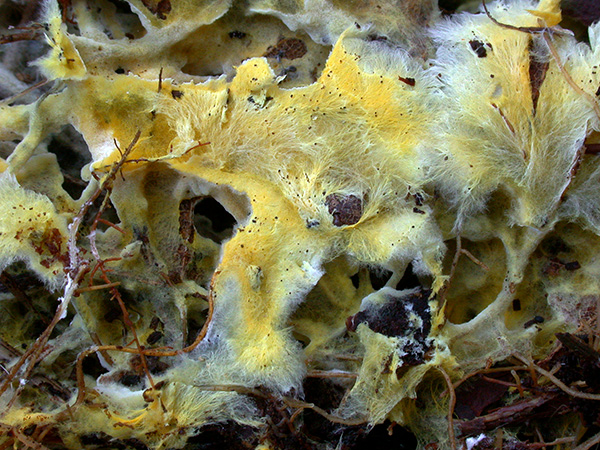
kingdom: Fungi
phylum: Basidiomycota
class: Agaricomycetes
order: Atheliales
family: Atheliaceae
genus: Piloderma
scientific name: Piloderma bicolor
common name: gul førnehinde
